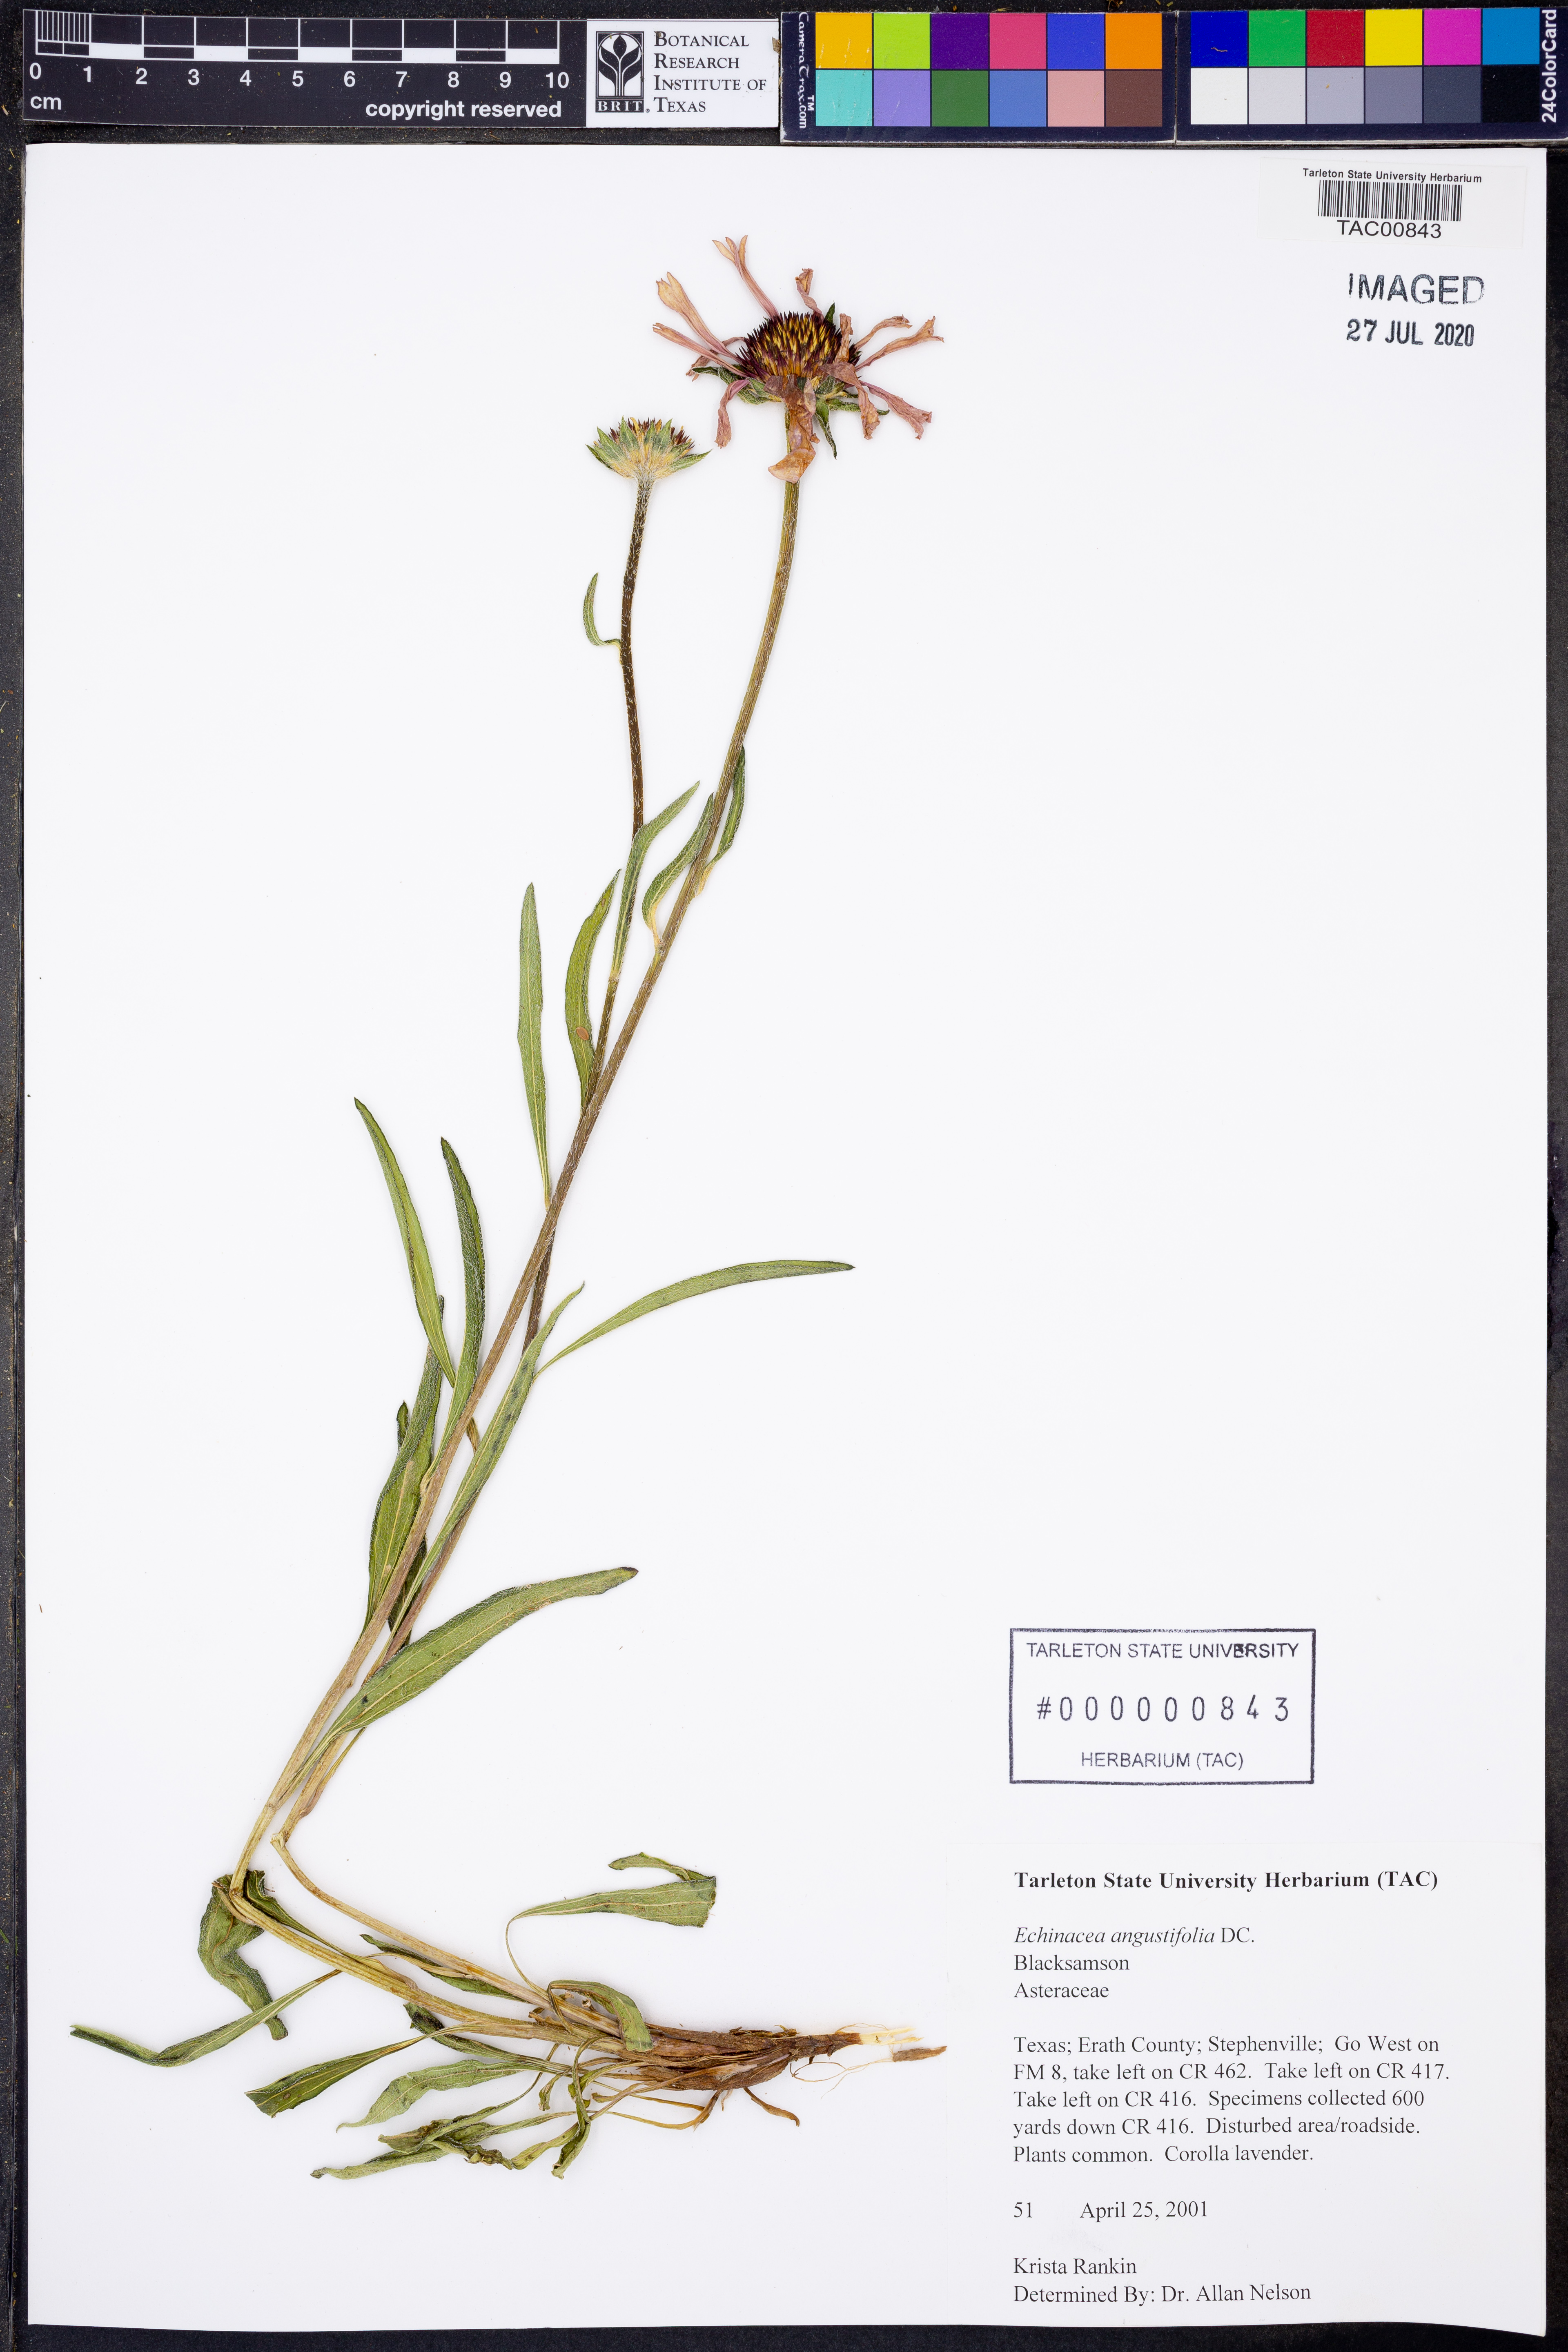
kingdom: Plantae
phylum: Tracheophyta
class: Magnoliopsida
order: Asterales
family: Asteraceae
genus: Echinacea
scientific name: Echinacea angustifolia
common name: Black-sampson echinacea
